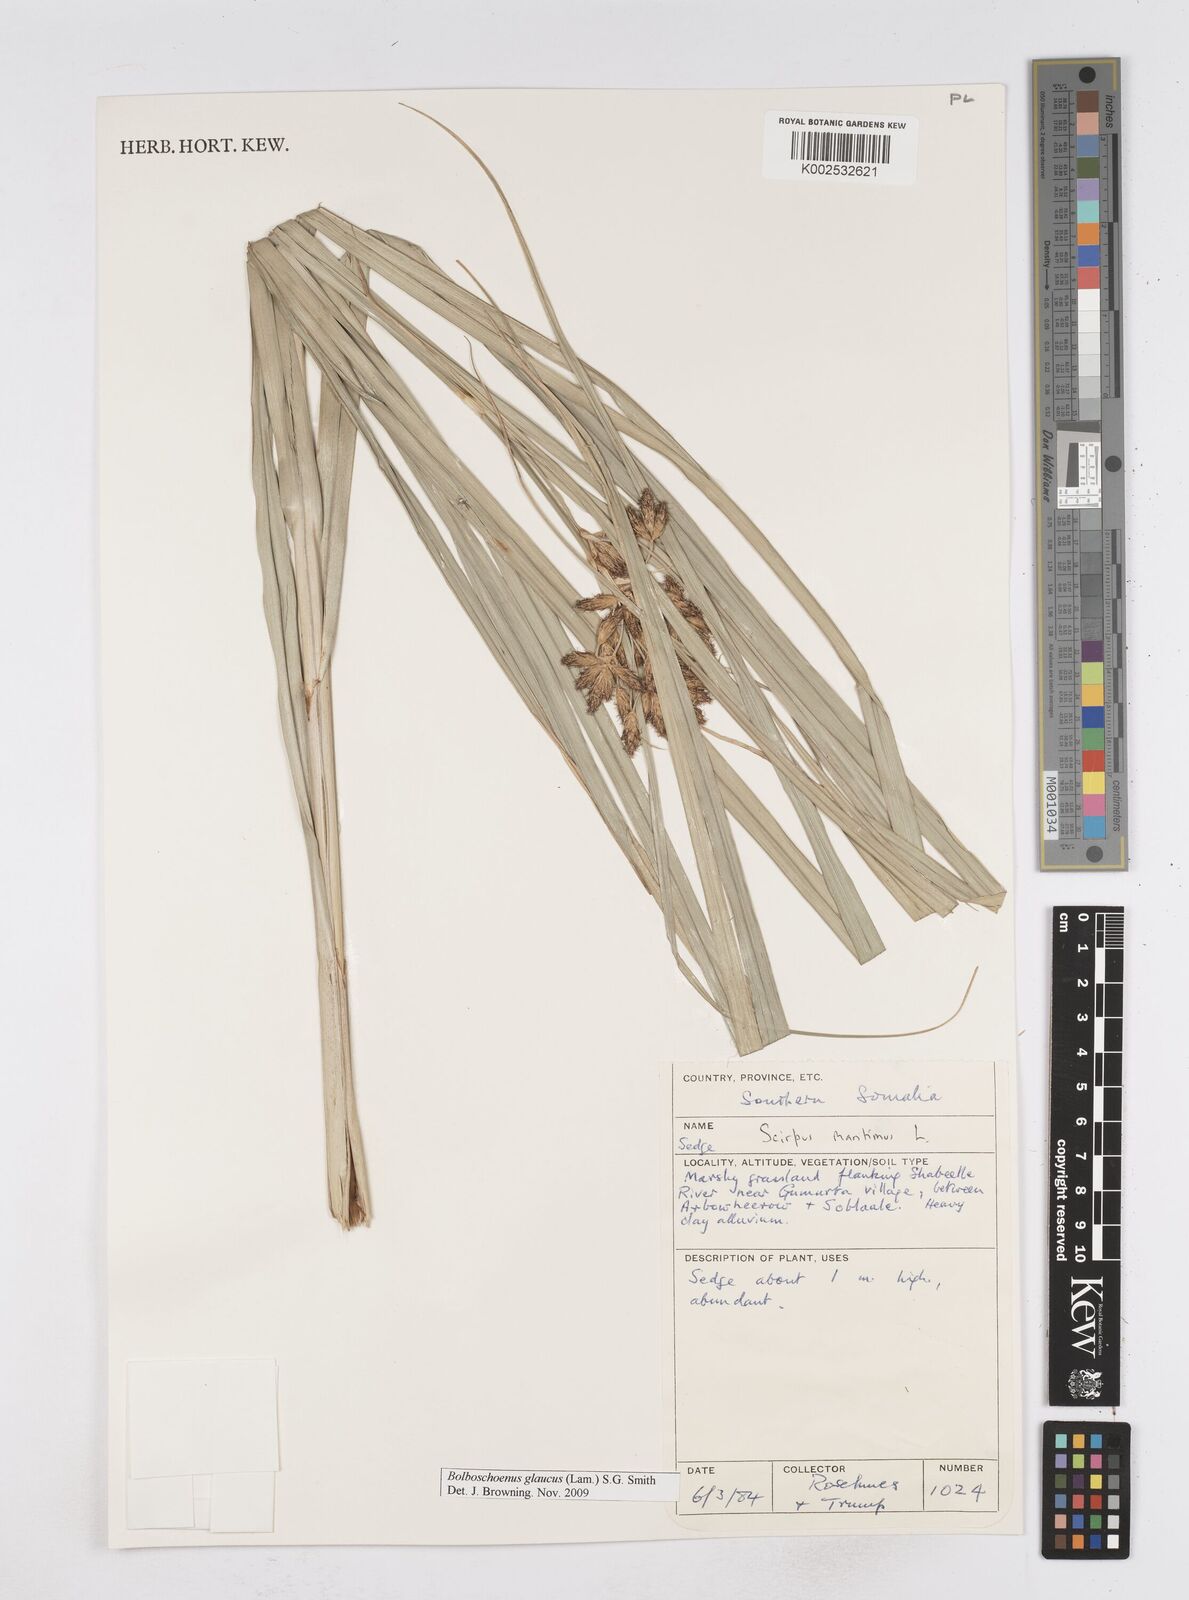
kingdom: Plantae
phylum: Tracheophyta
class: Liliopsida
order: Poales
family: Cyperaceae
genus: Bolboschoenus
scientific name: Bolboschoenus glaucus
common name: Tuberous bulrush
